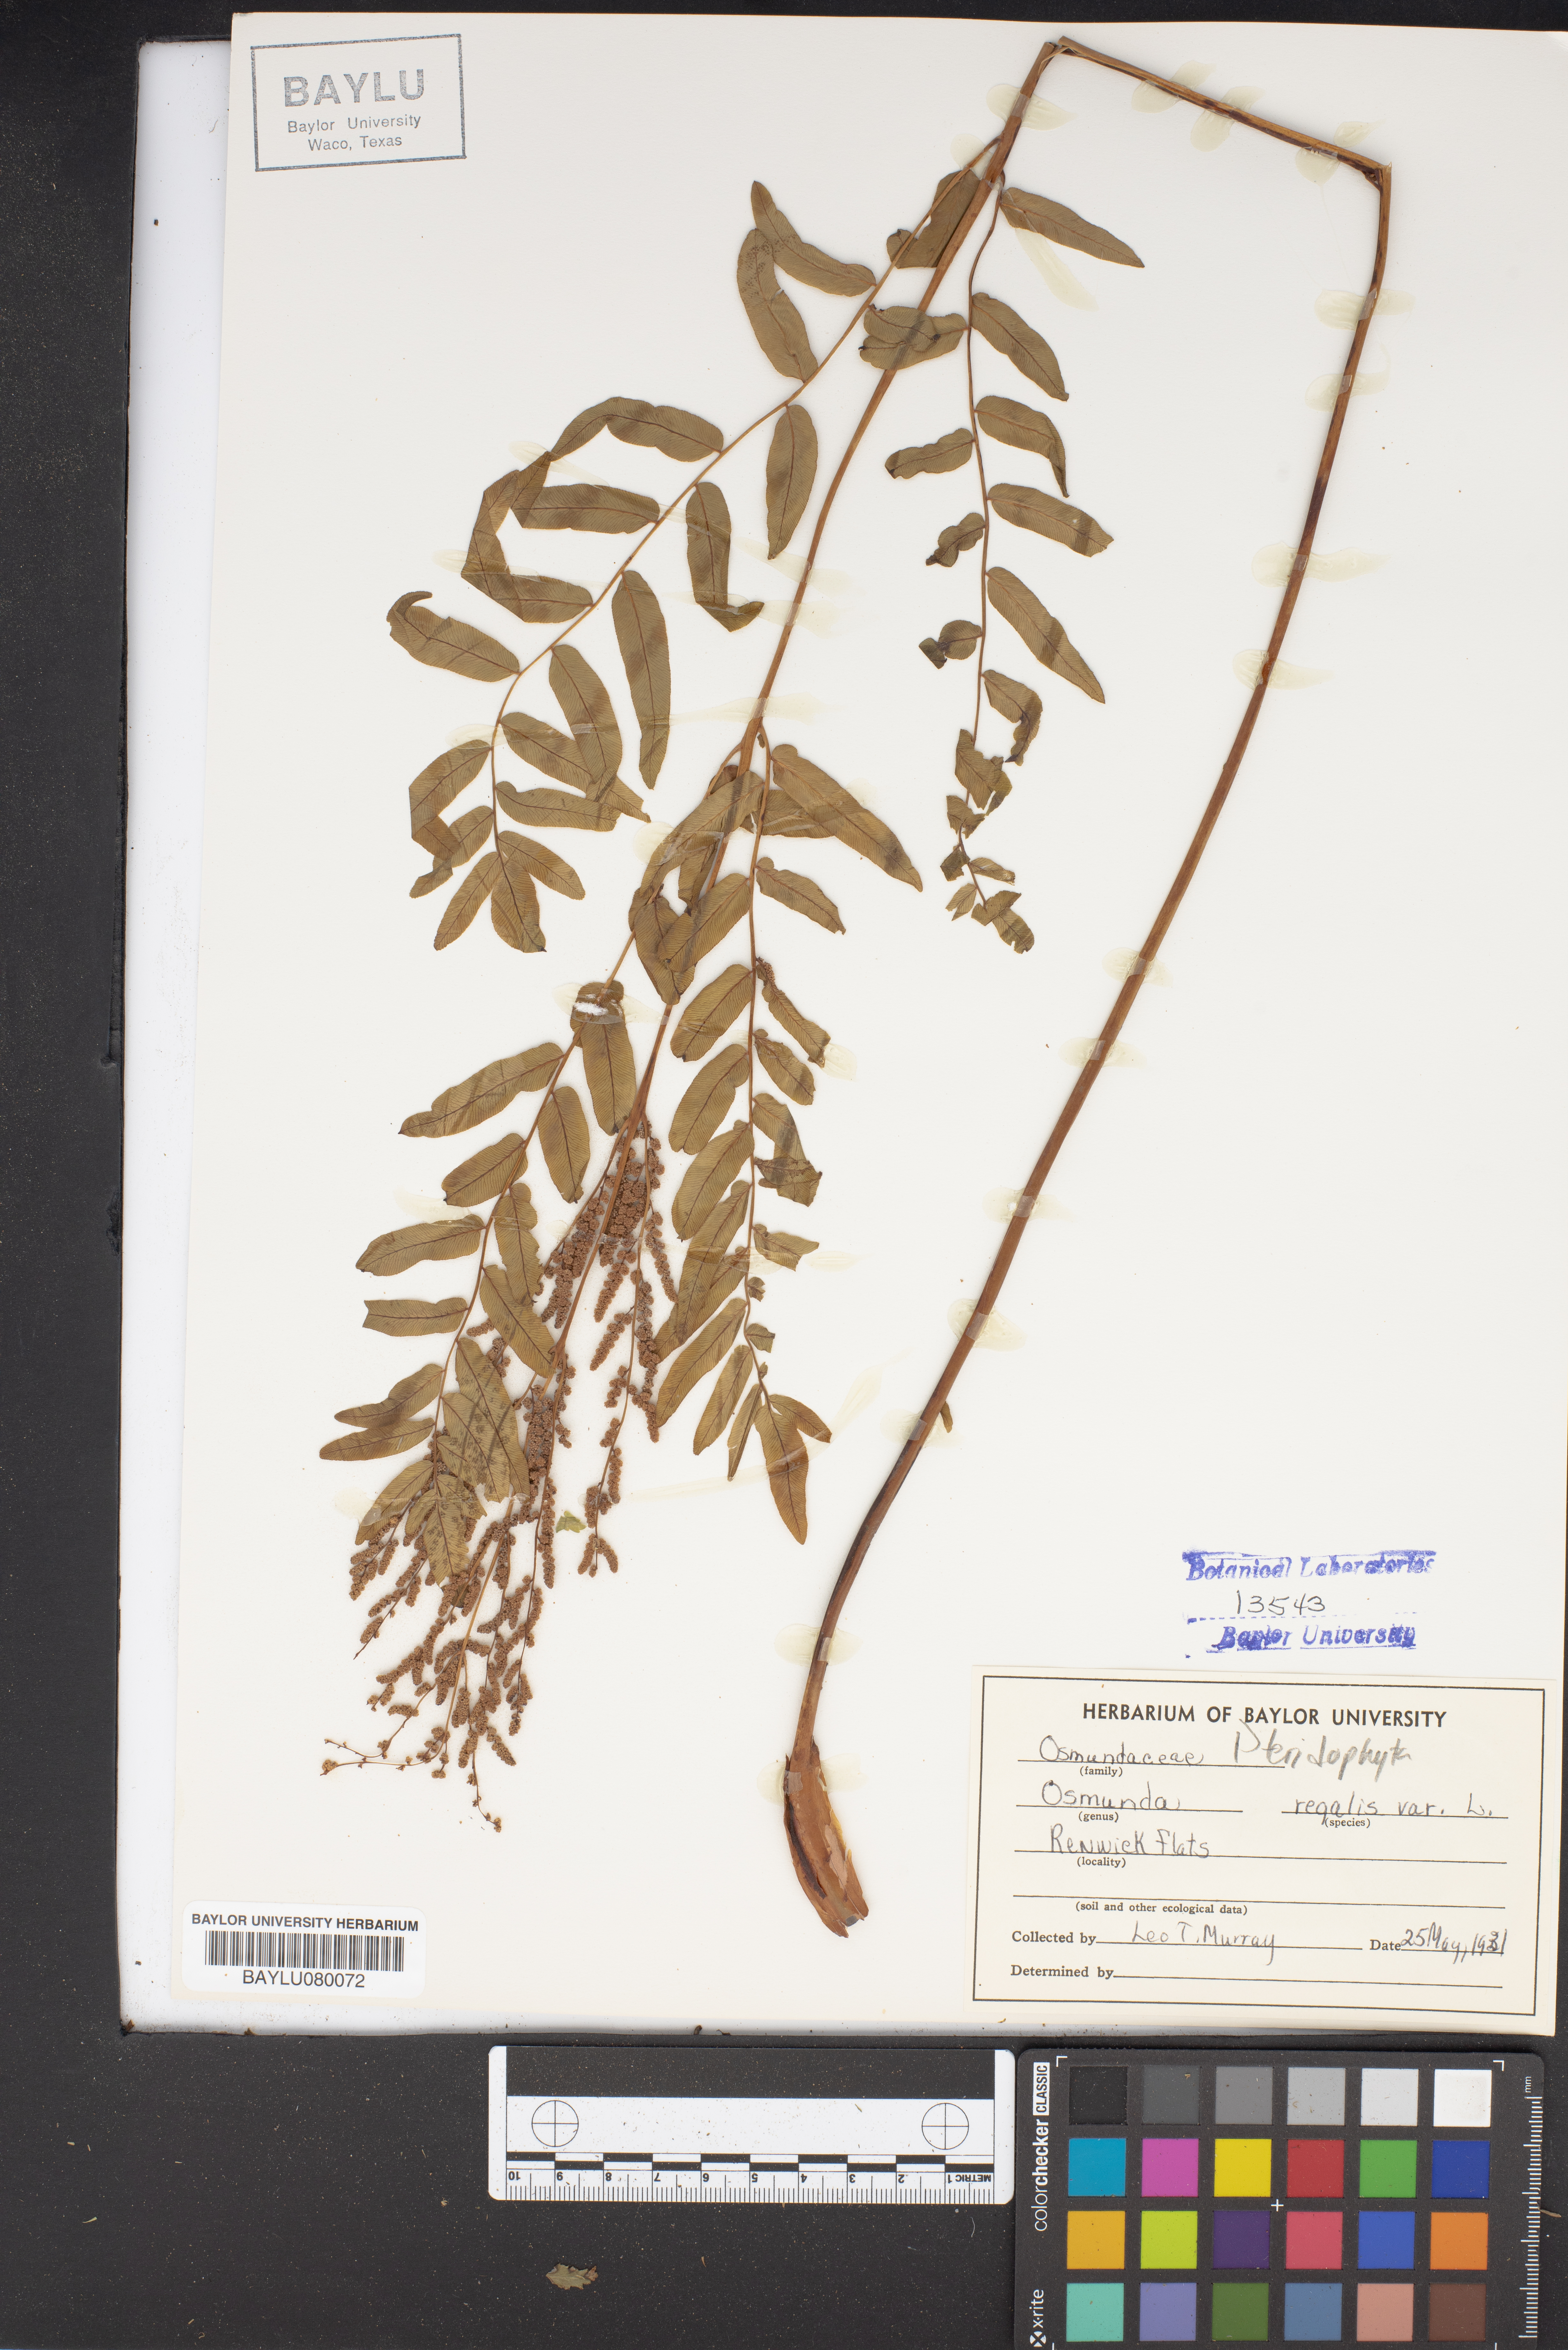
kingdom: Plantae
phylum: Tracheophyta
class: Polypodiopsida
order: Osmundales
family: Osmundaceae
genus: Osmunda
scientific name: Osmunda regalis
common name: Royal fern
